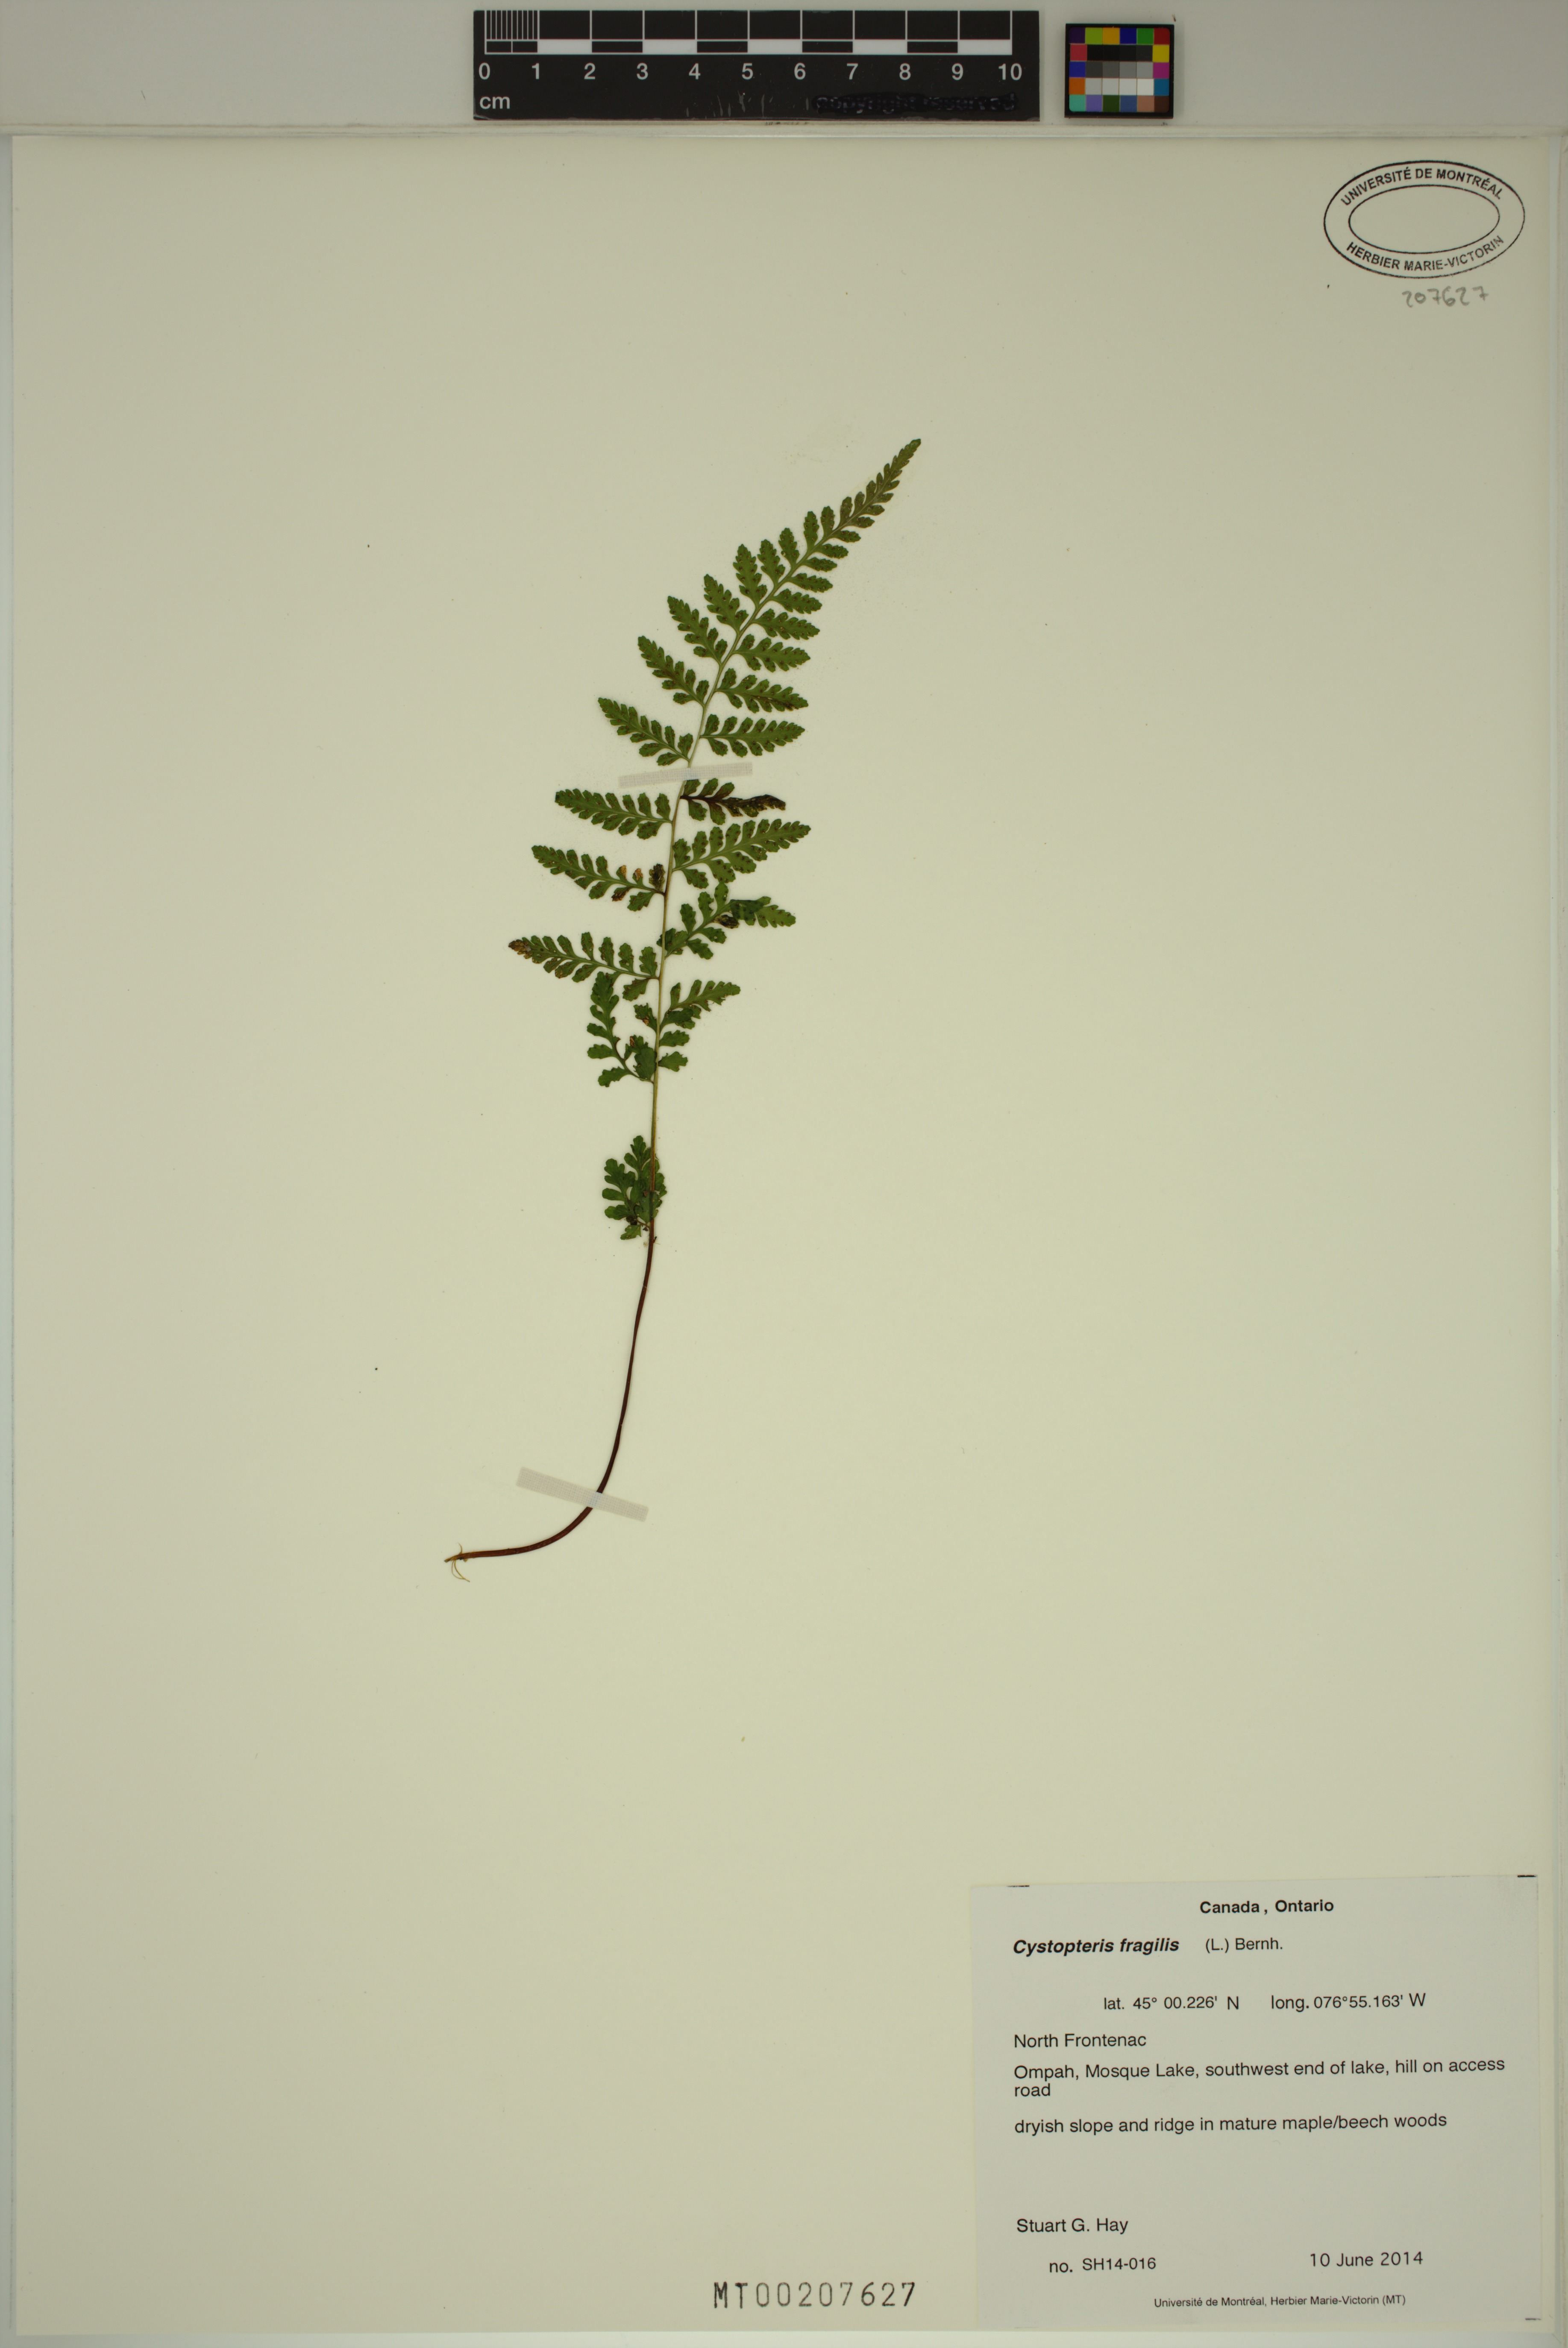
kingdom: Plantae
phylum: Tracheophyta
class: Polypodiopsida
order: Polypodiales
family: Cystopteridaceae
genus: Cystopteris
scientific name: Cystopteris fragilis
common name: Brittle bladder fern
